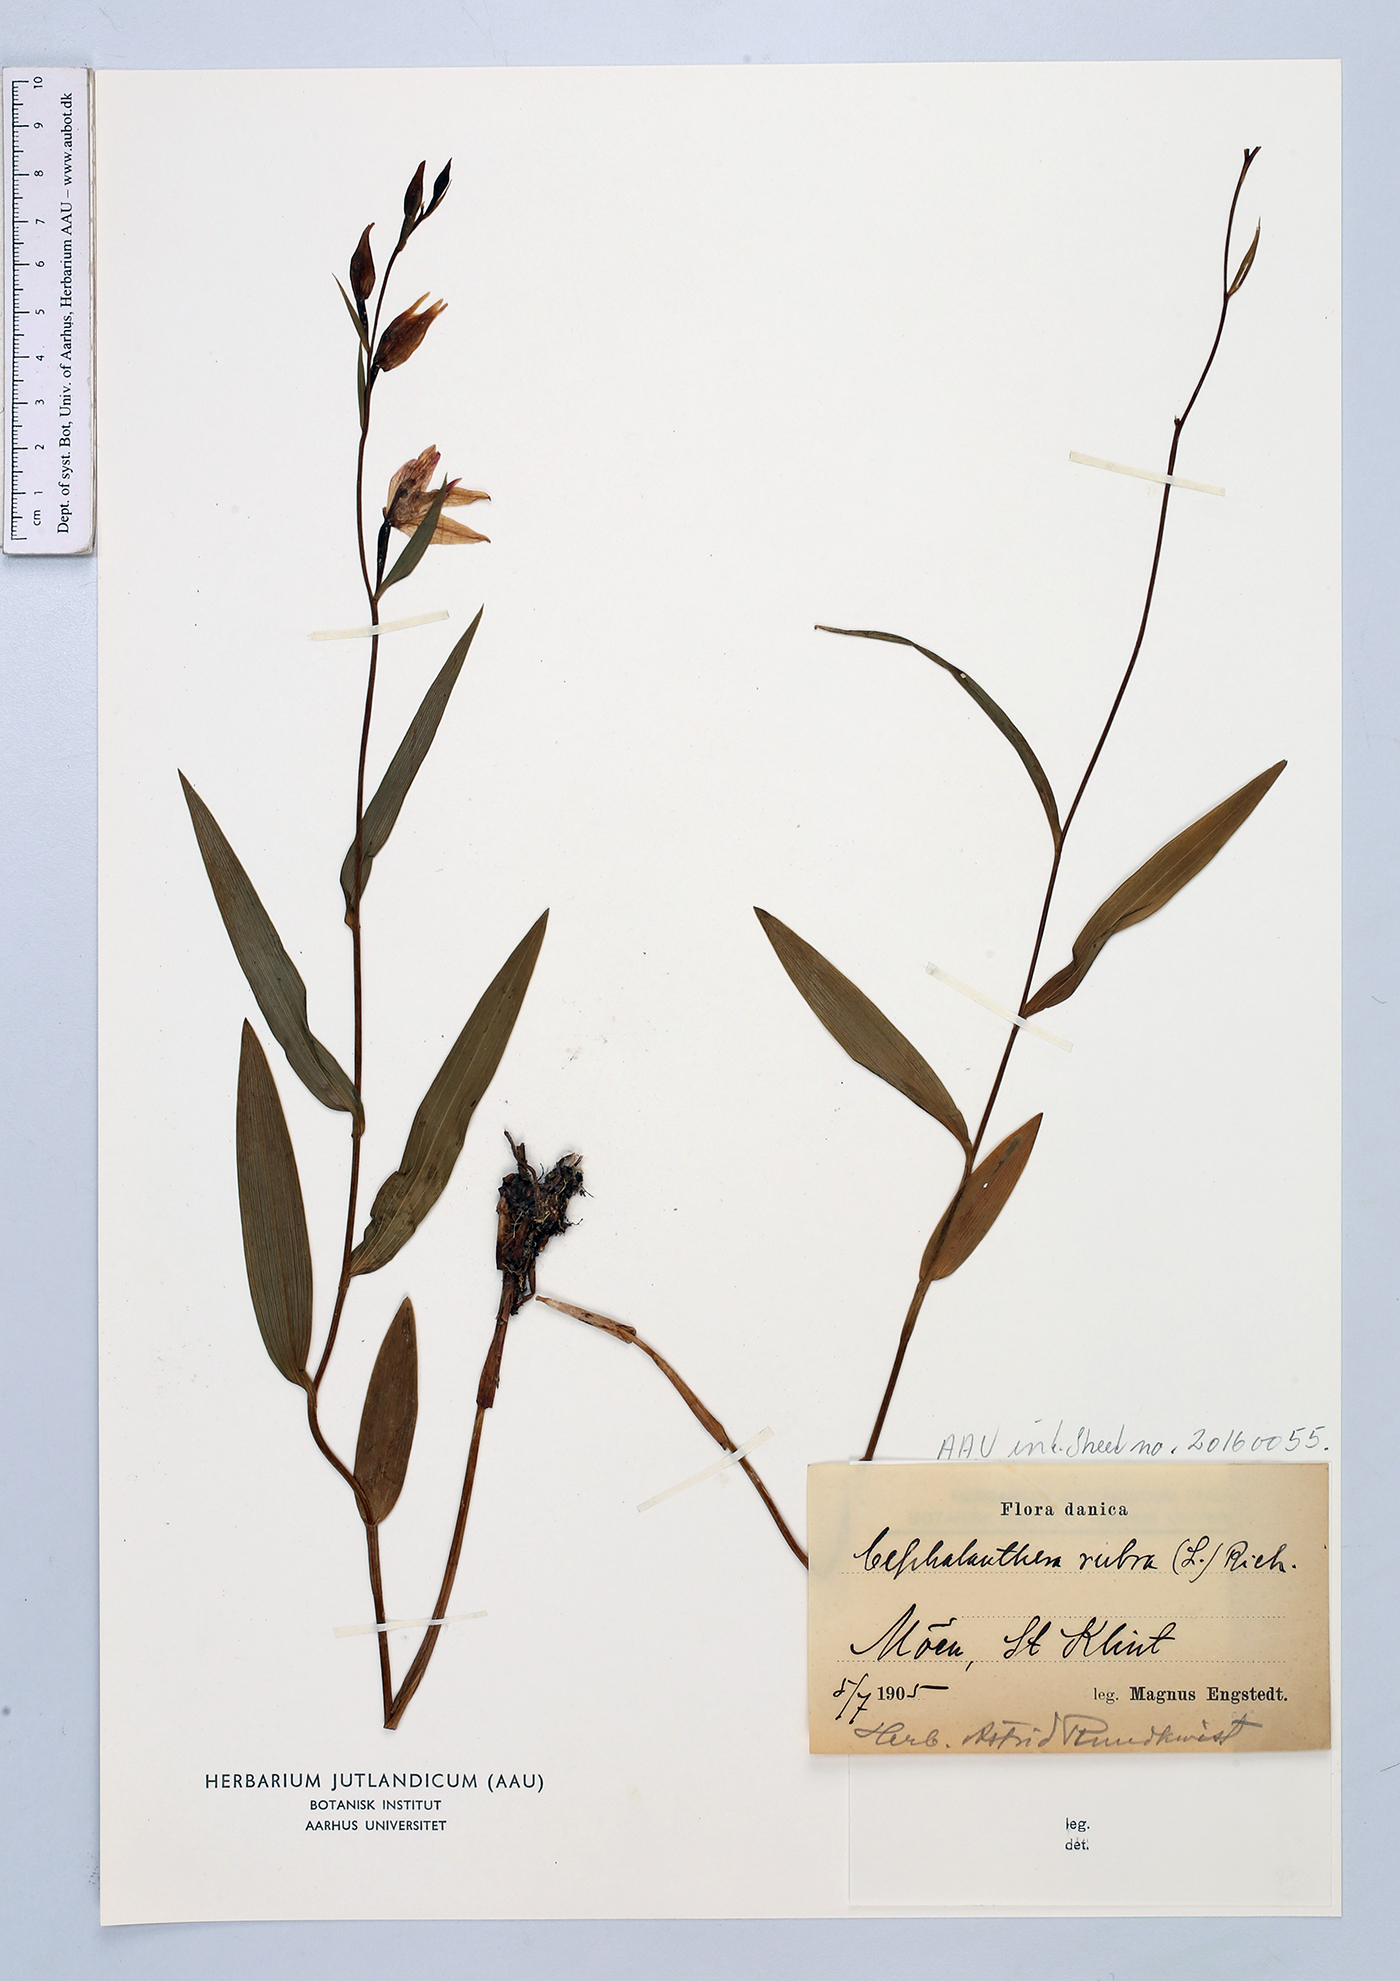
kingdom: Plantae
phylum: Tracheophyta
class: Liliopsida
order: Asparagales
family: Orchidaceae
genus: Cephalanthera
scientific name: Cephalanthera rubra
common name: Red helleborine
